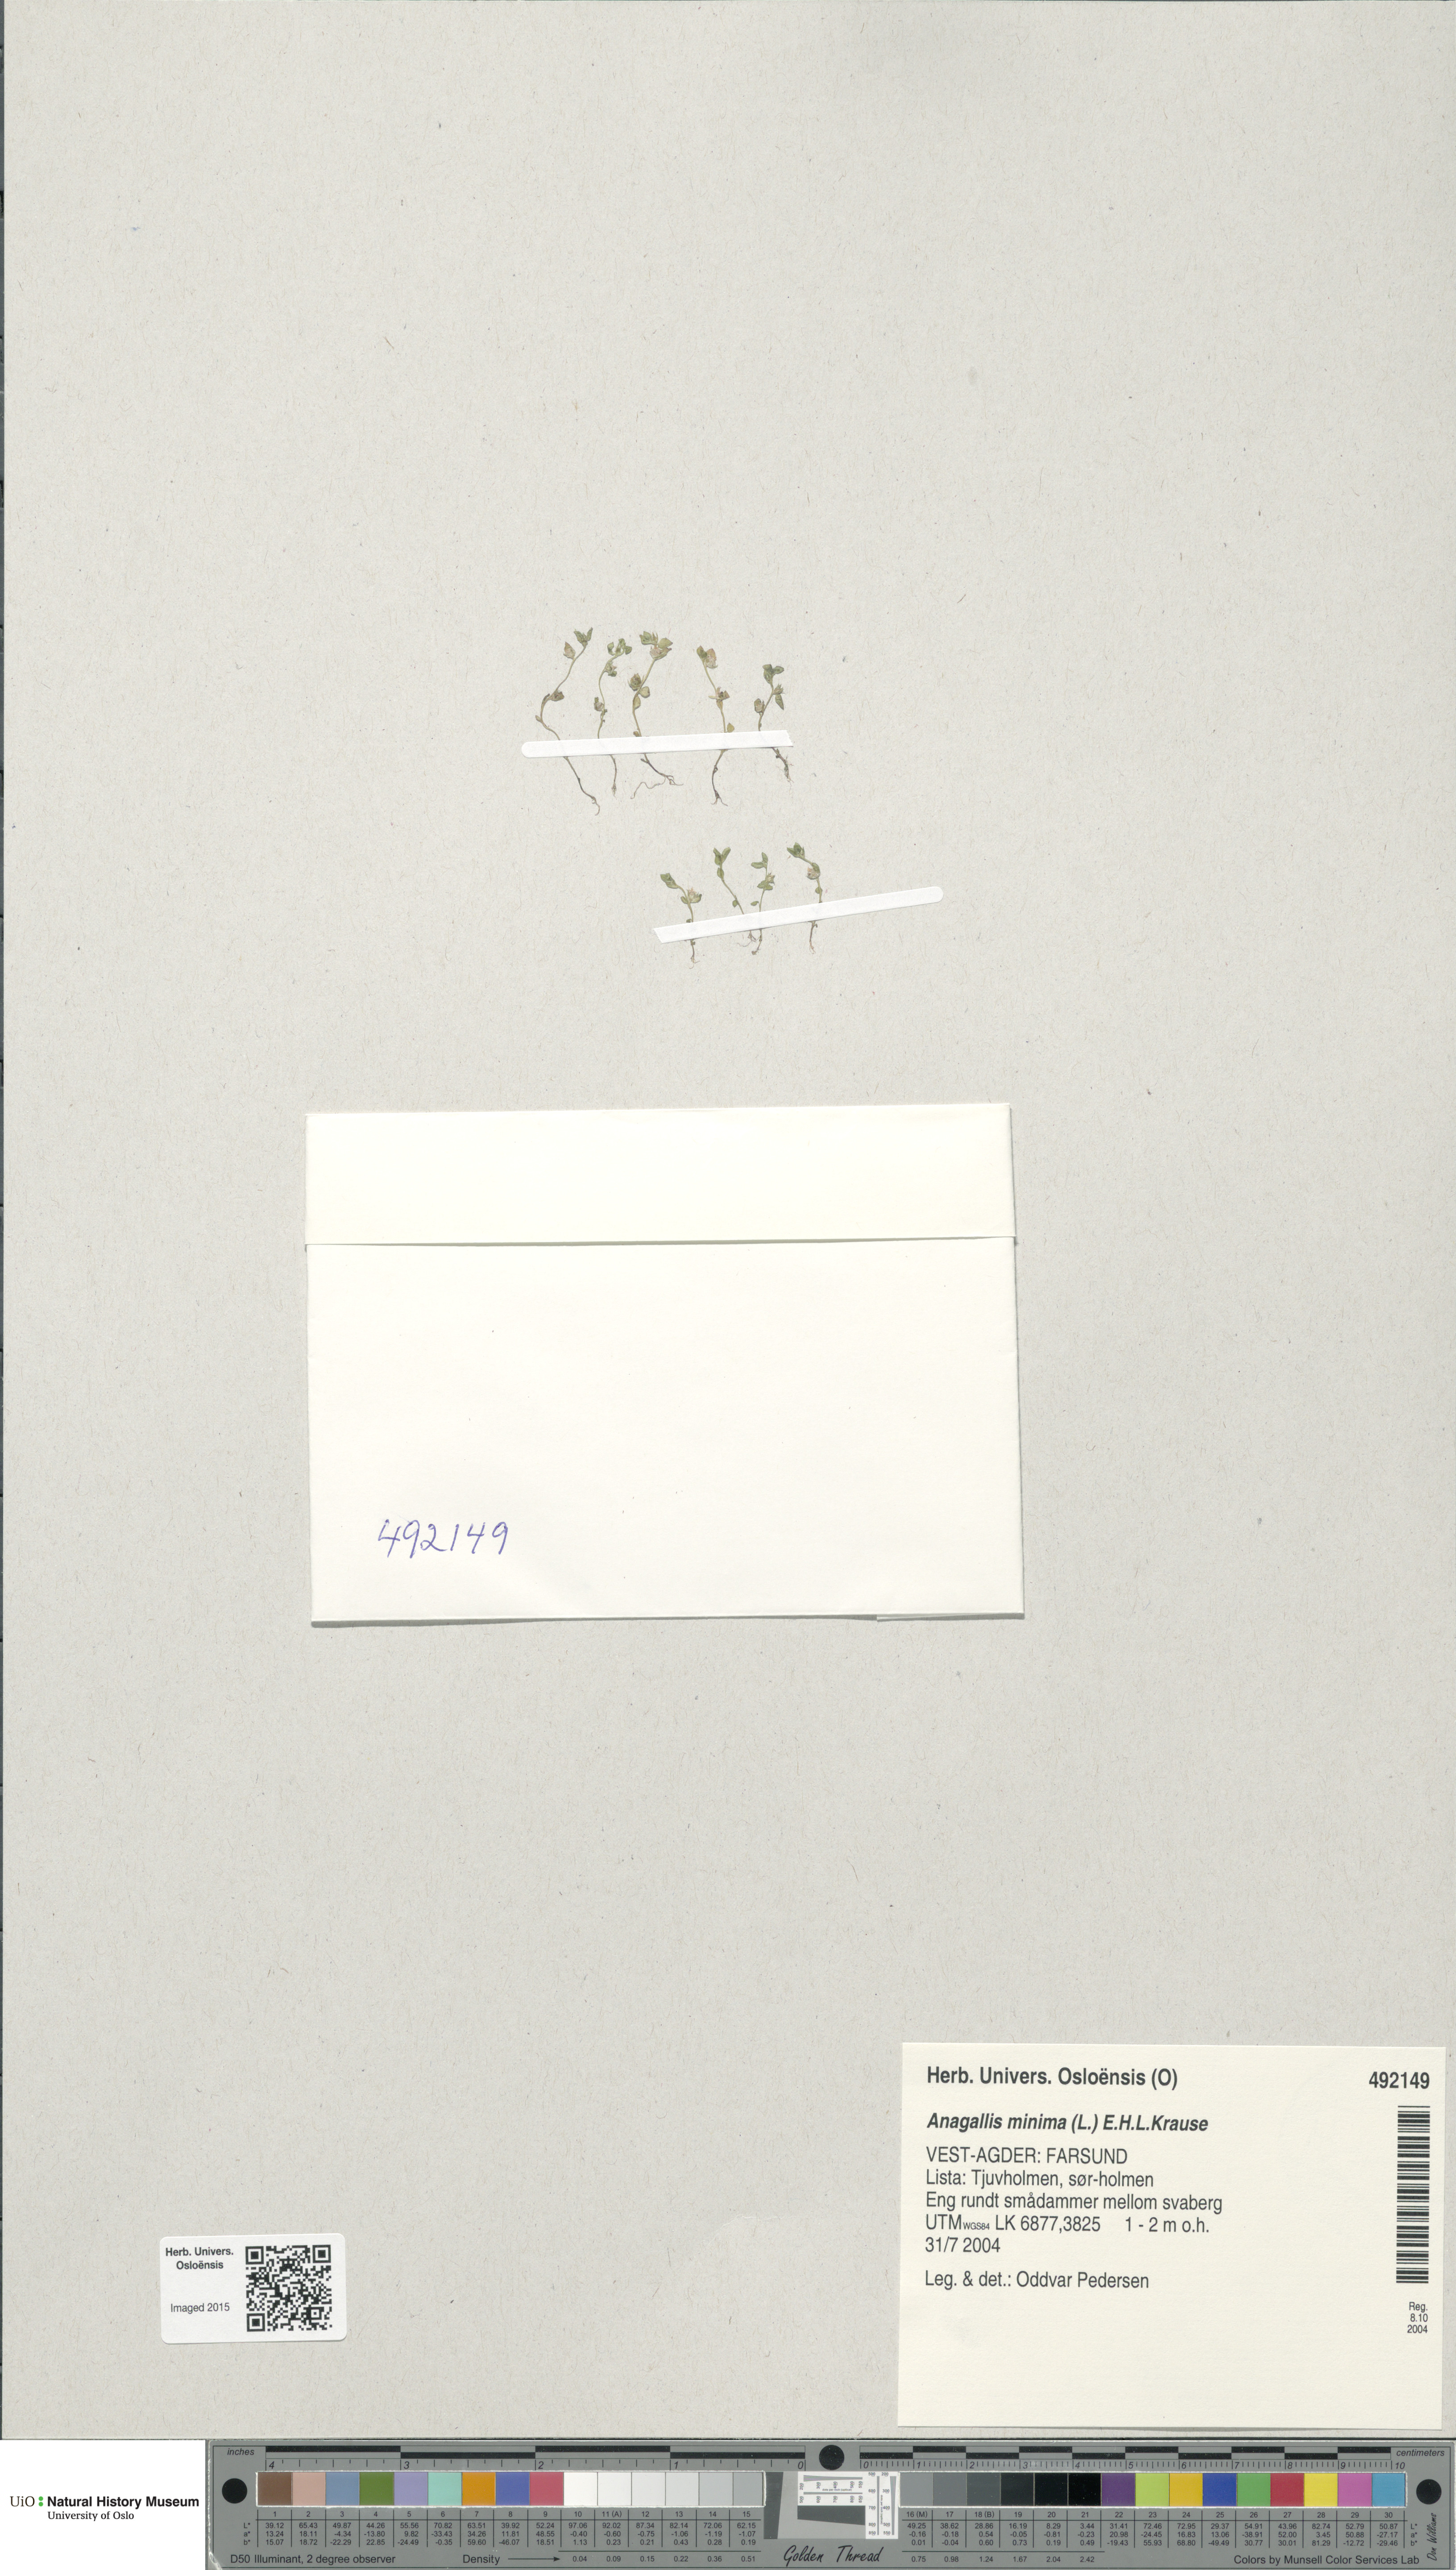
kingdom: Plantae
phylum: Tracheophyta
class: Magnoliopsida
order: Ericales
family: Primulaceae
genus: Lysimachia
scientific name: Lysimachia minima
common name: Chaffweed
